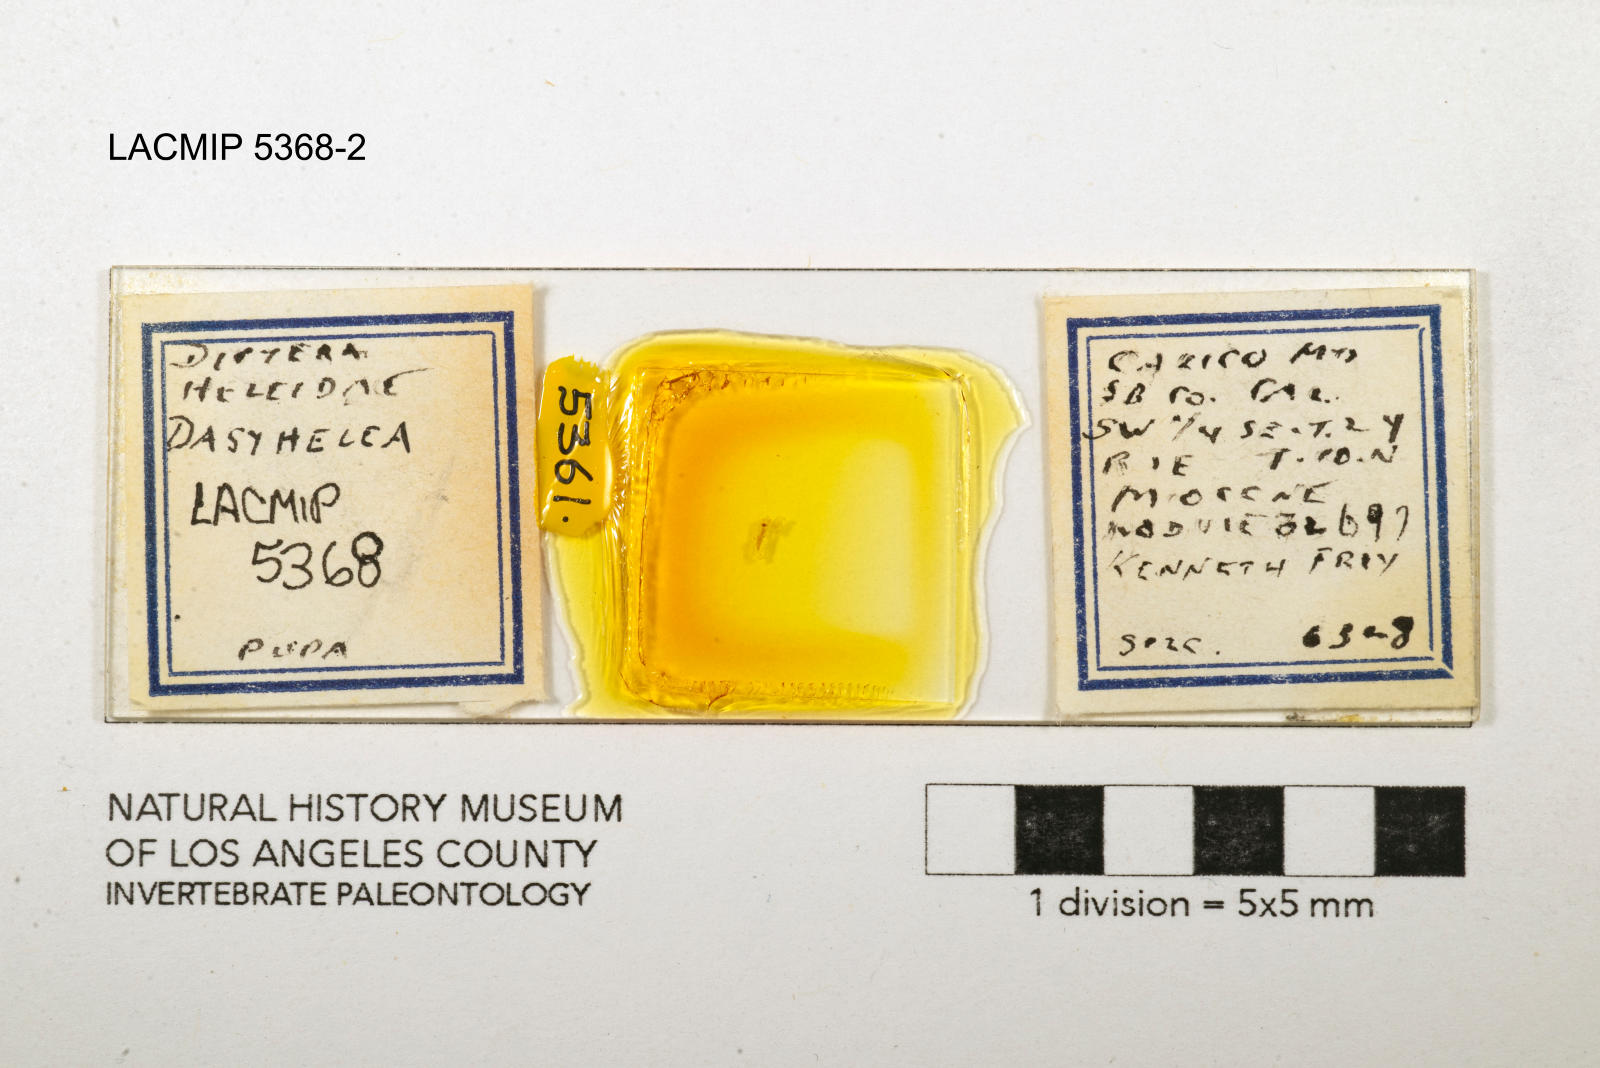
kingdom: Animalia
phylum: Arthropoda
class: Insecta
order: Diptera
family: Ceratopogonidae
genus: Dasyhelea
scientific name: Dasyhelea kanakoffi
